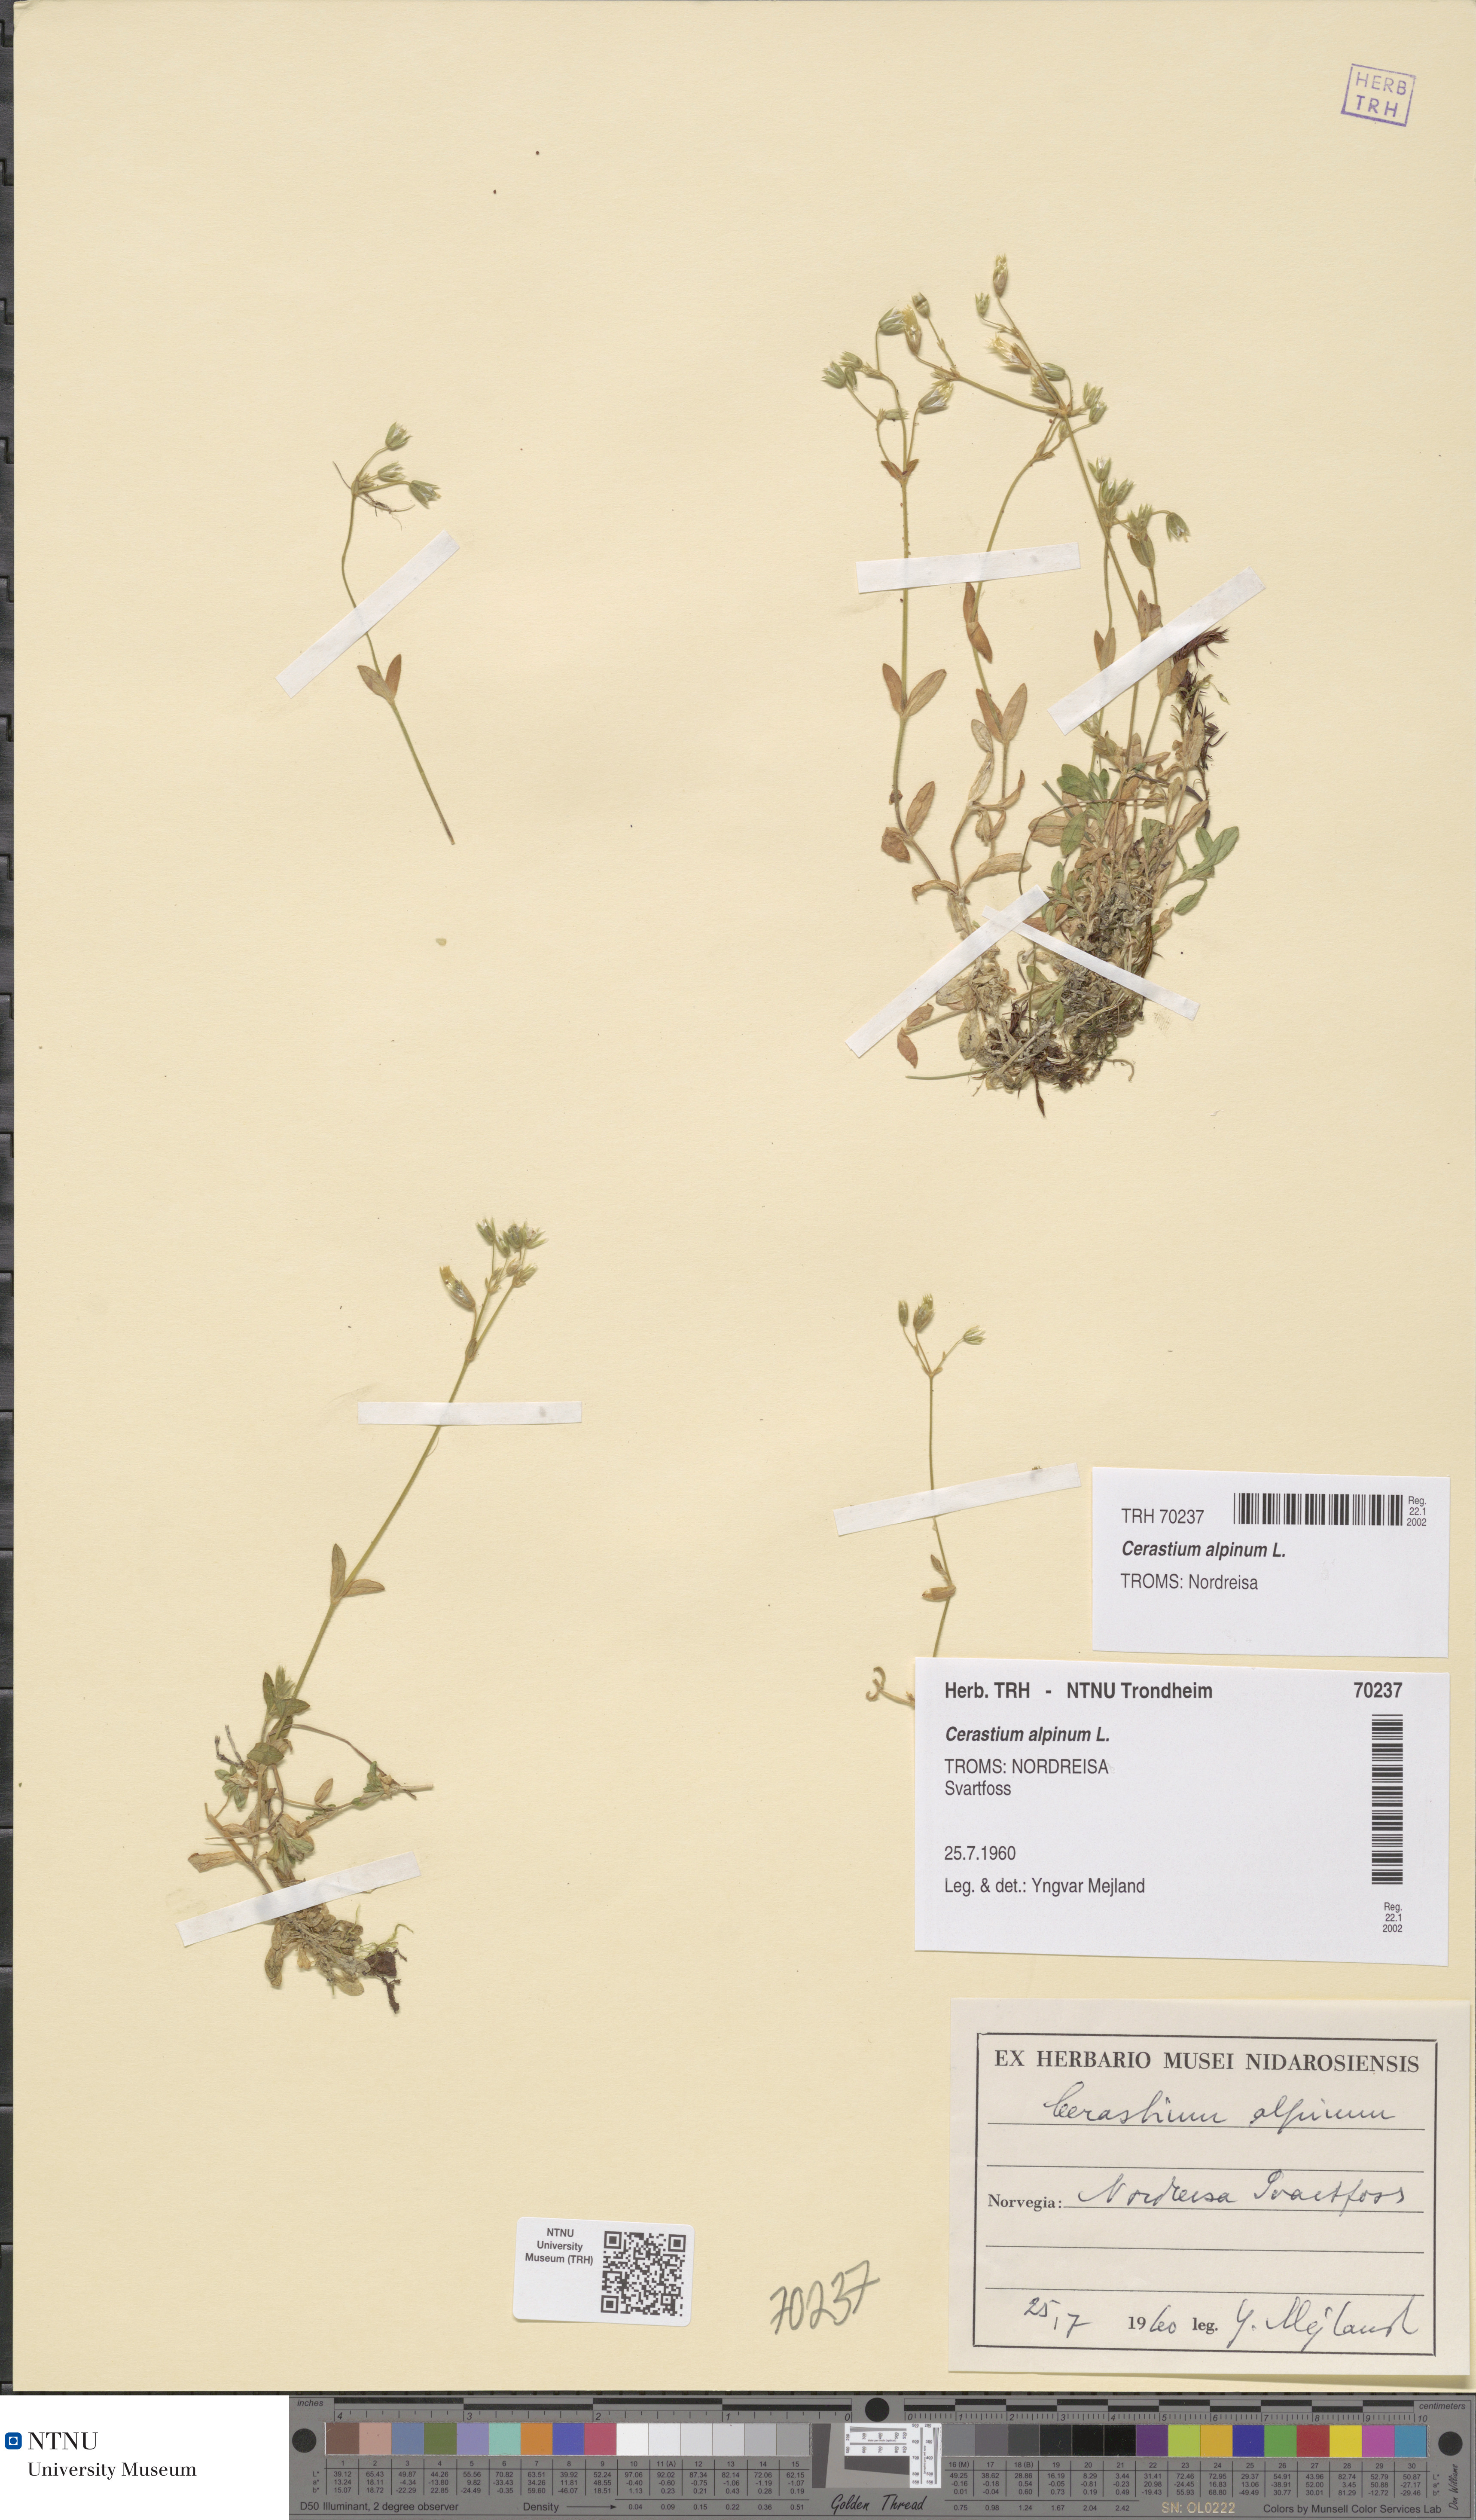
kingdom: Plantae
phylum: Tracheophyta
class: Magnoliopsida
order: Caryophyllales
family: Caryophyllaceae
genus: Cerastium
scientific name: Cerastium alpinum
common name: Alpine mouse-ear
